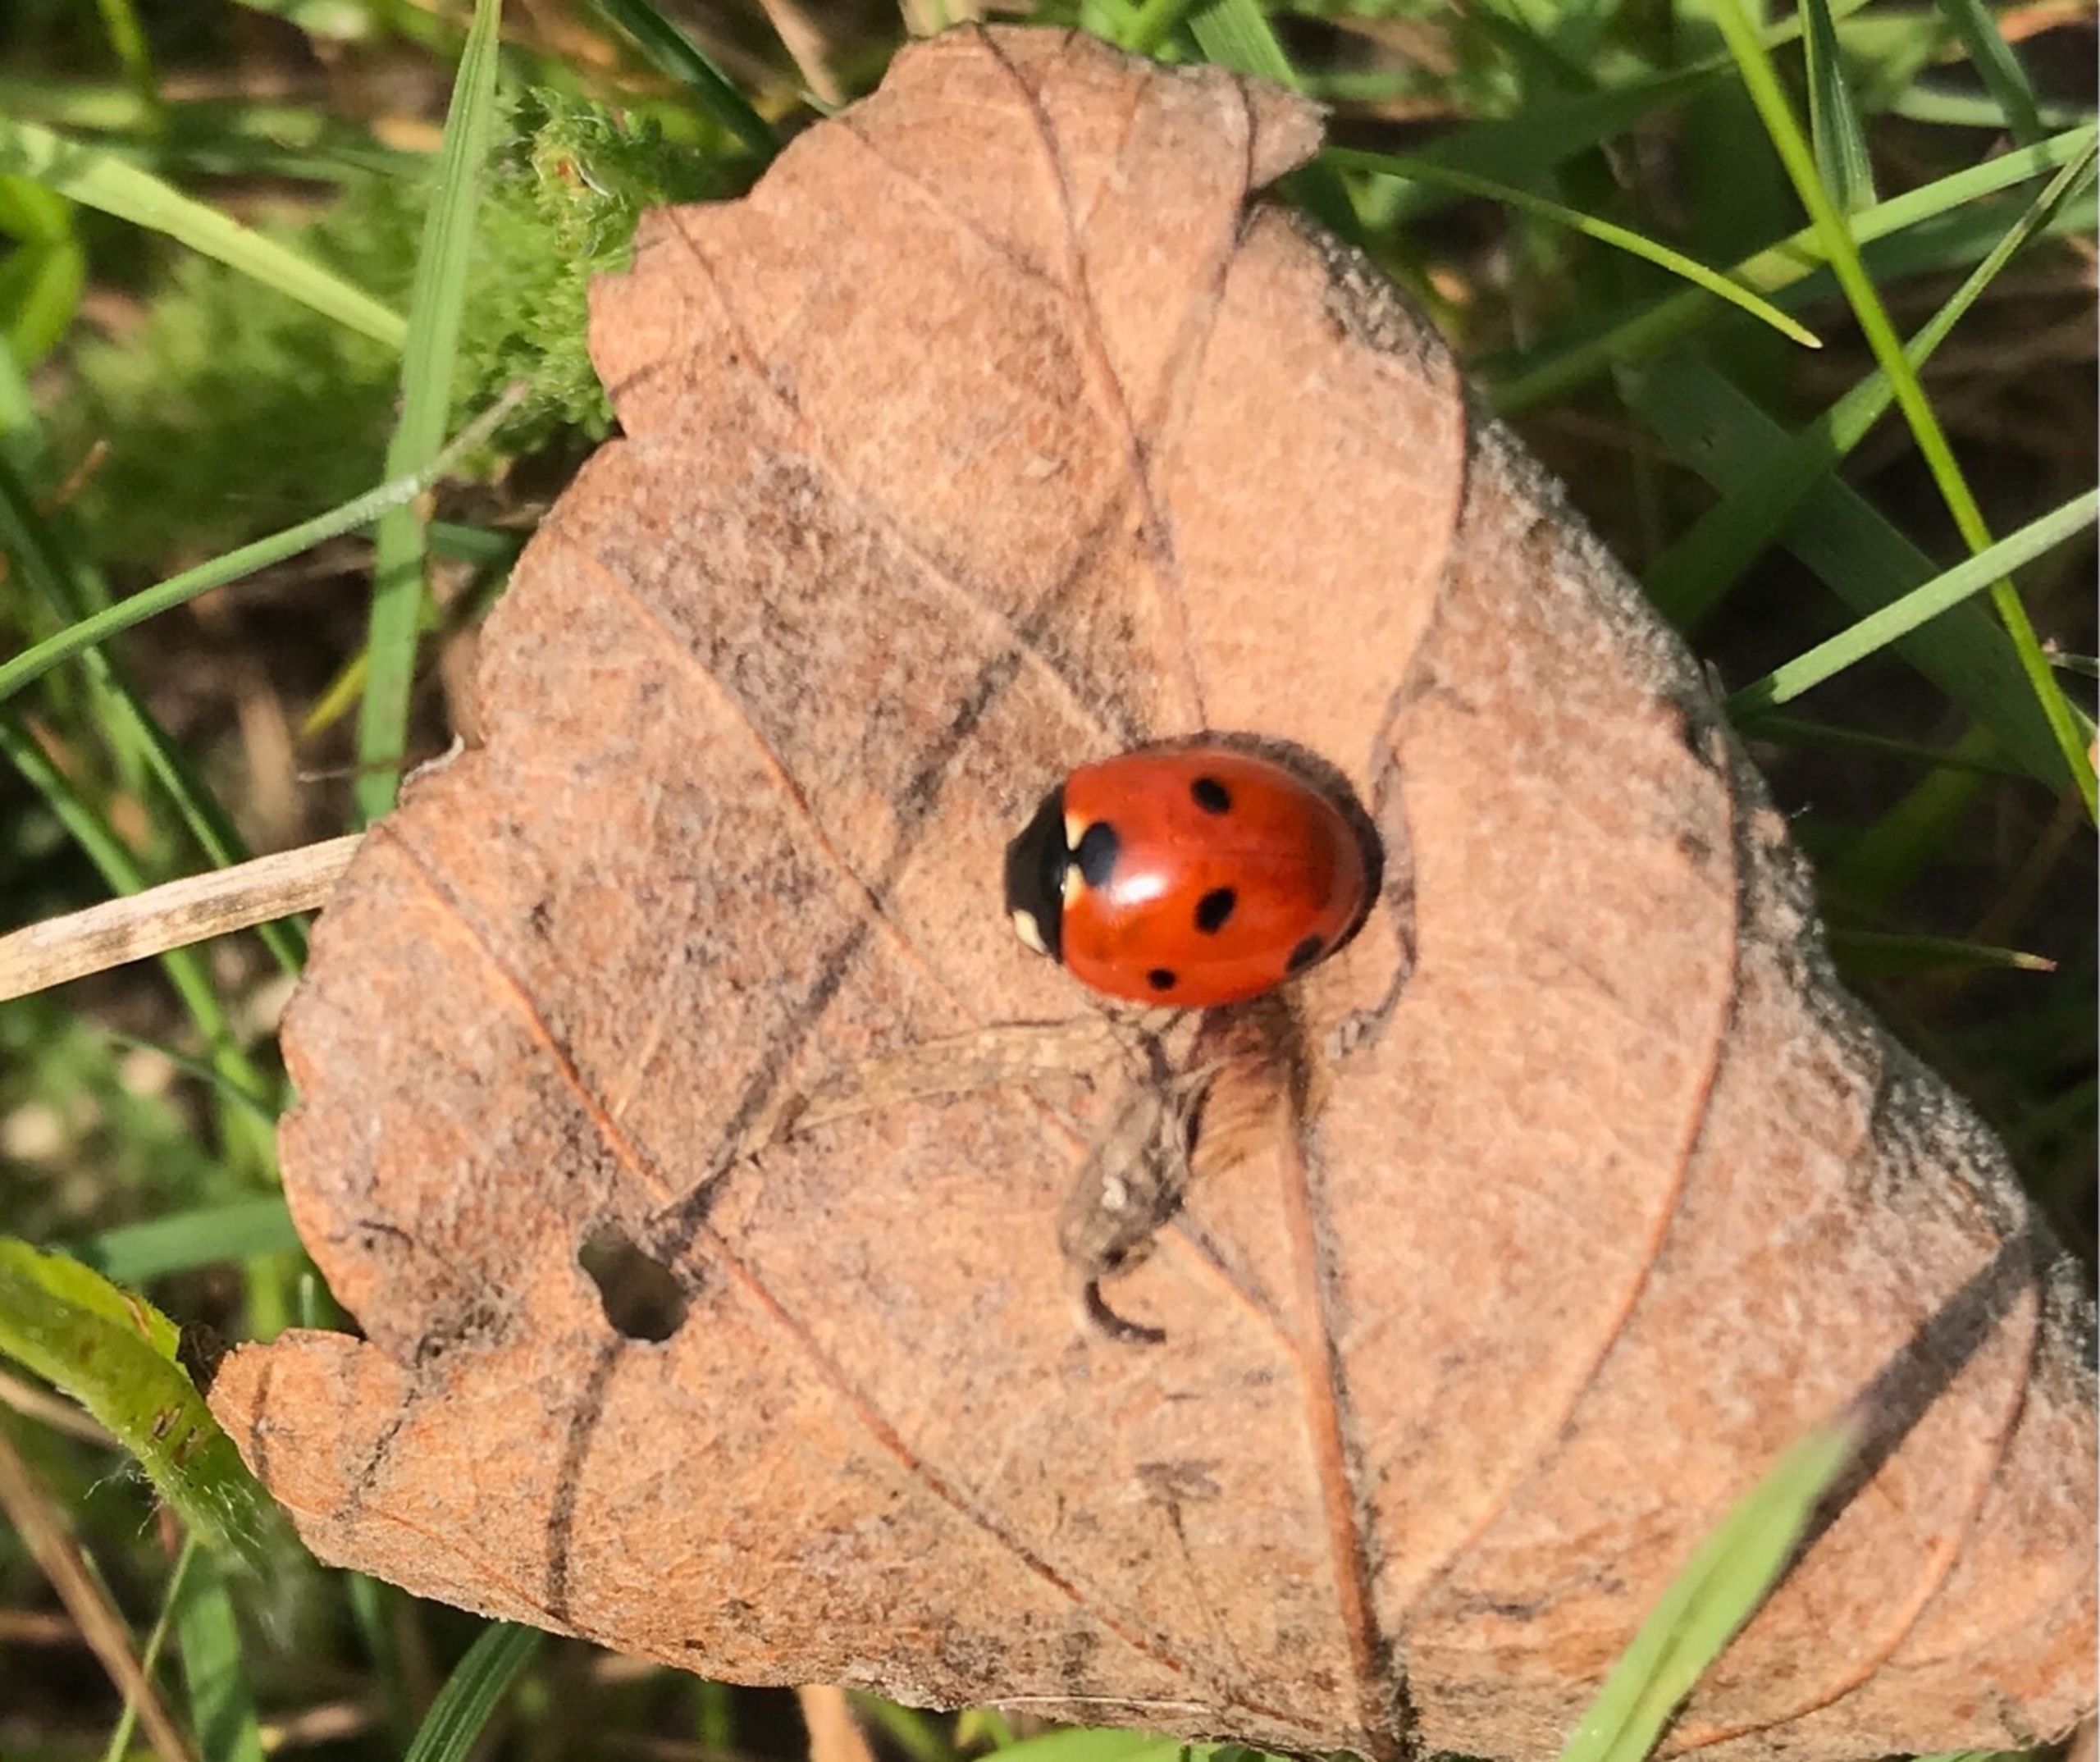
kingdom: Animalia
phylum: Arthropoda
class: Insecta
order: Coleoptera
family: Coccinellidae
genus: Coccinella
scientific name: Coccinella septempunctata
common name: Syvplettet mariehøne
